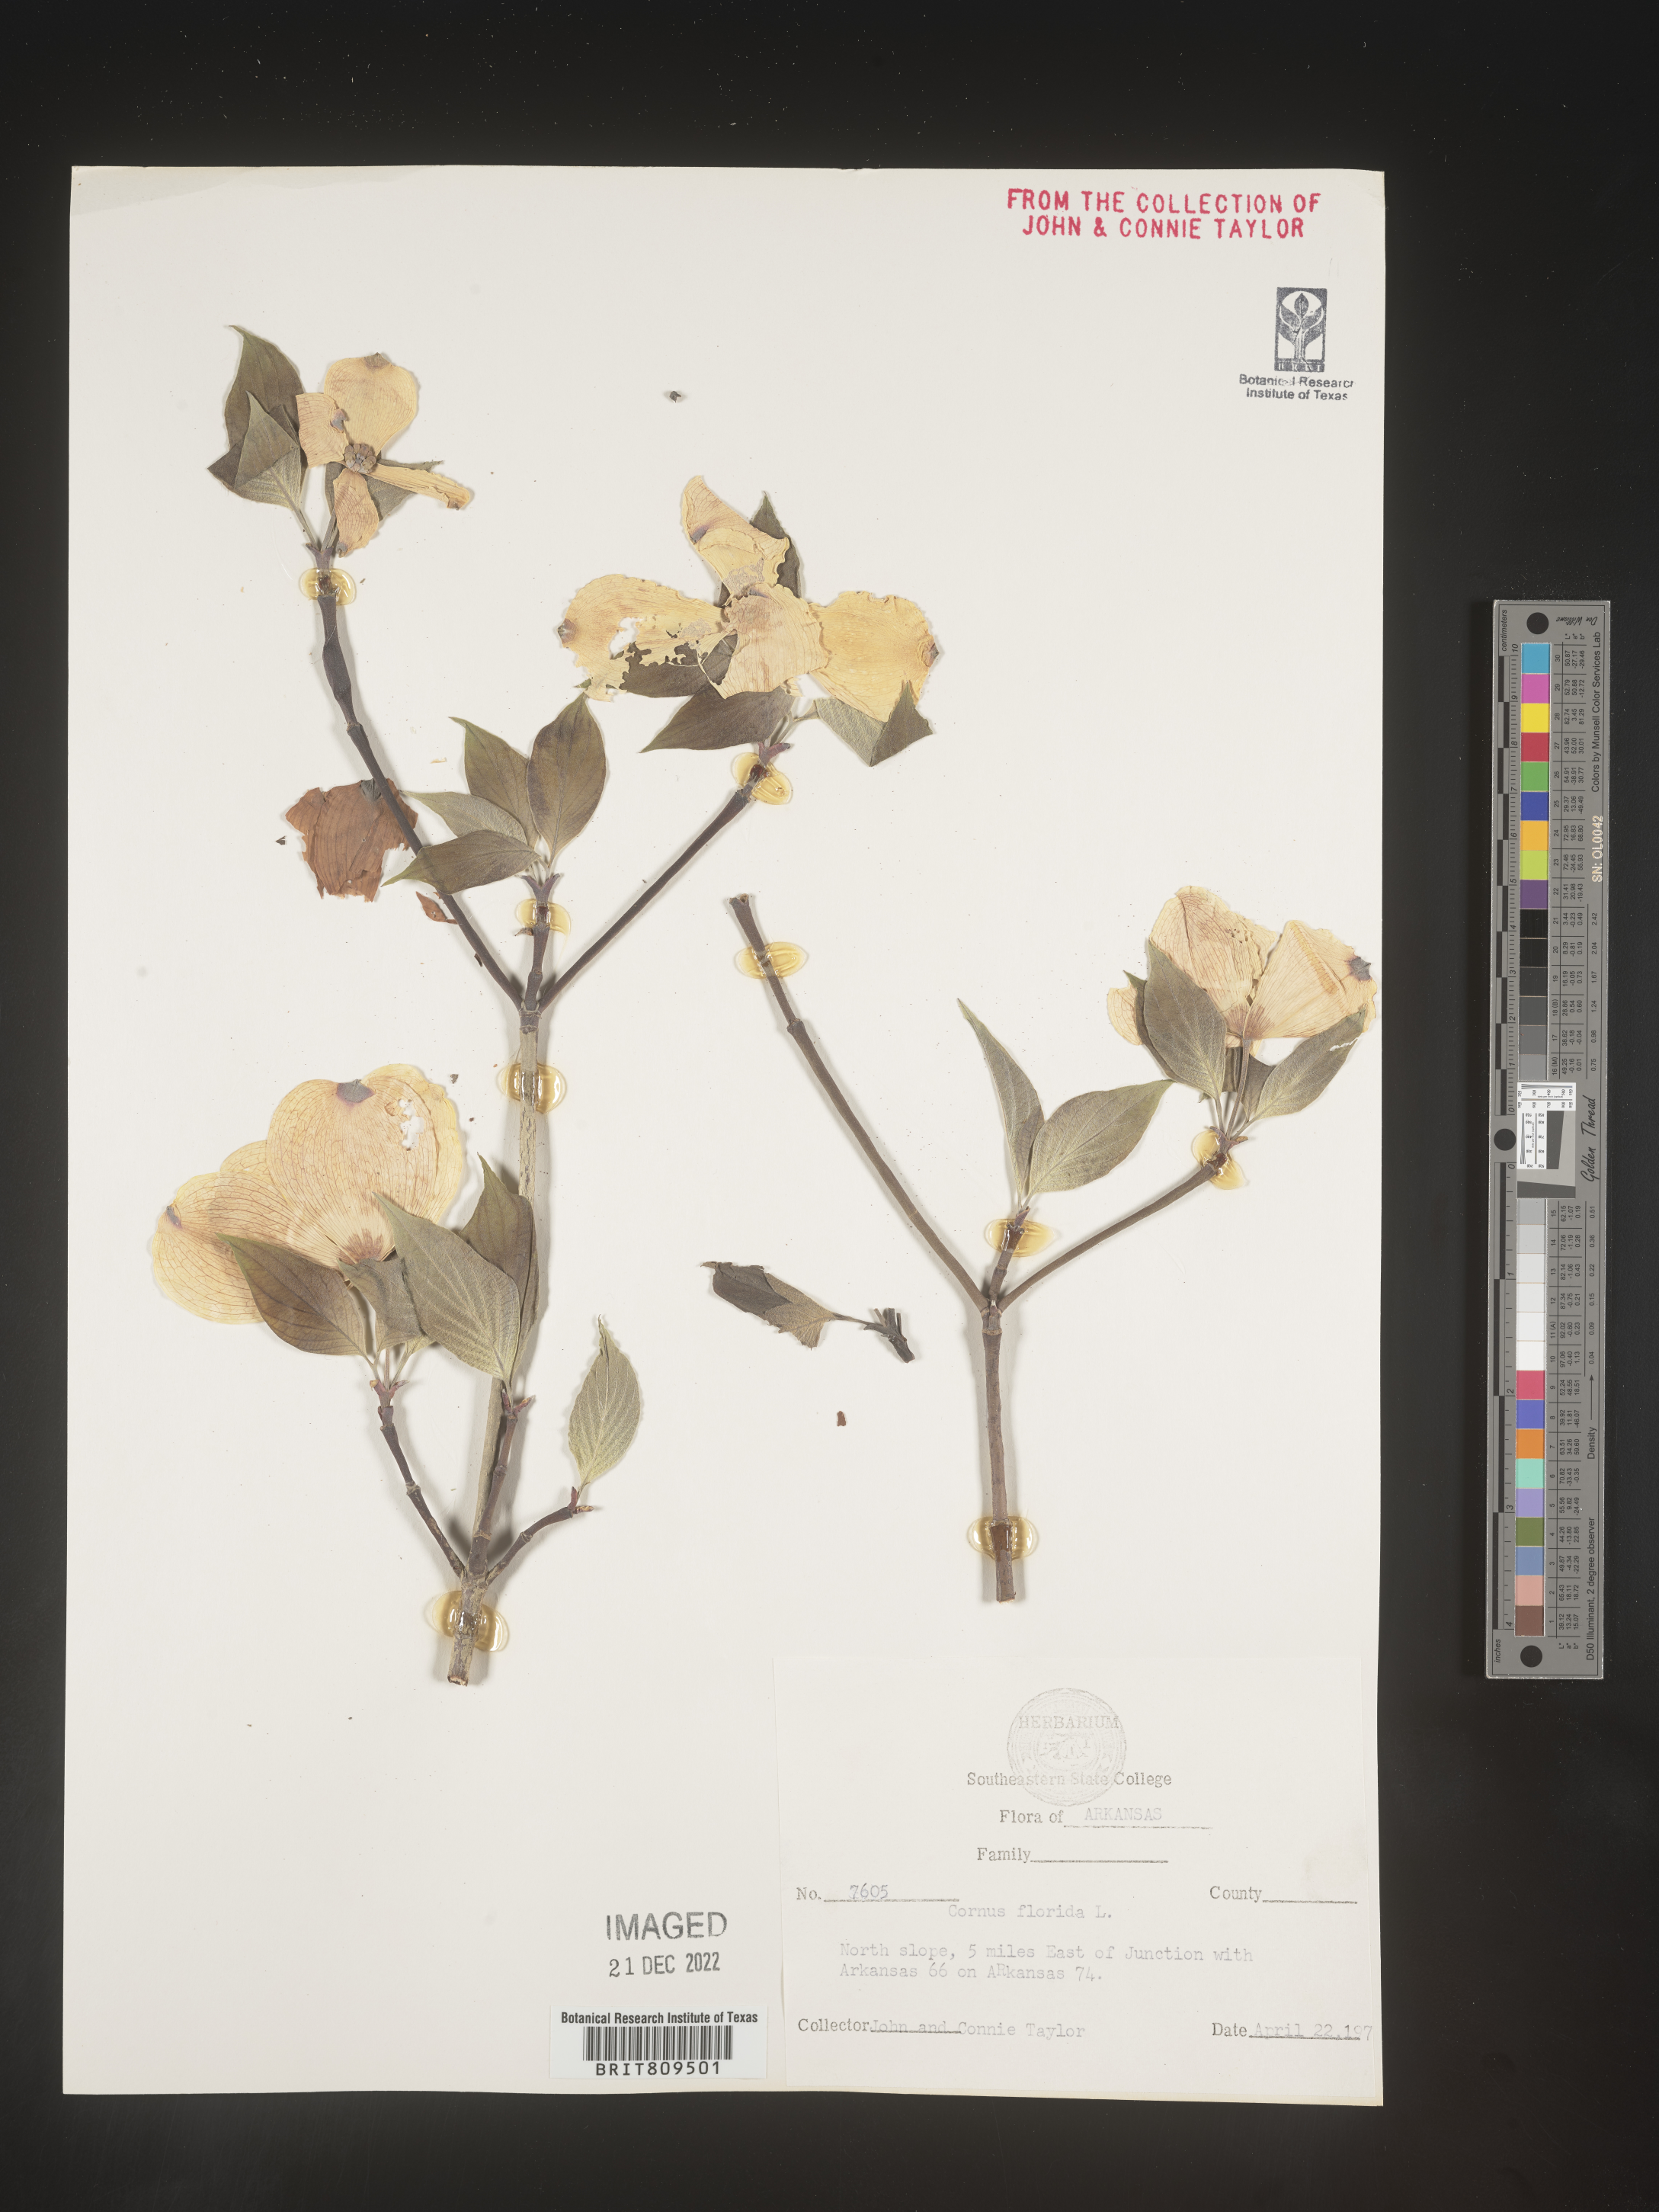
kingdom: Plantae
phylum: Tracheophyta
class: Magnoliopsida
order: Cornales
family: Cornaceae
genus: Cornus
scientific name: Cornus florida
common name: Flowering dogwood
